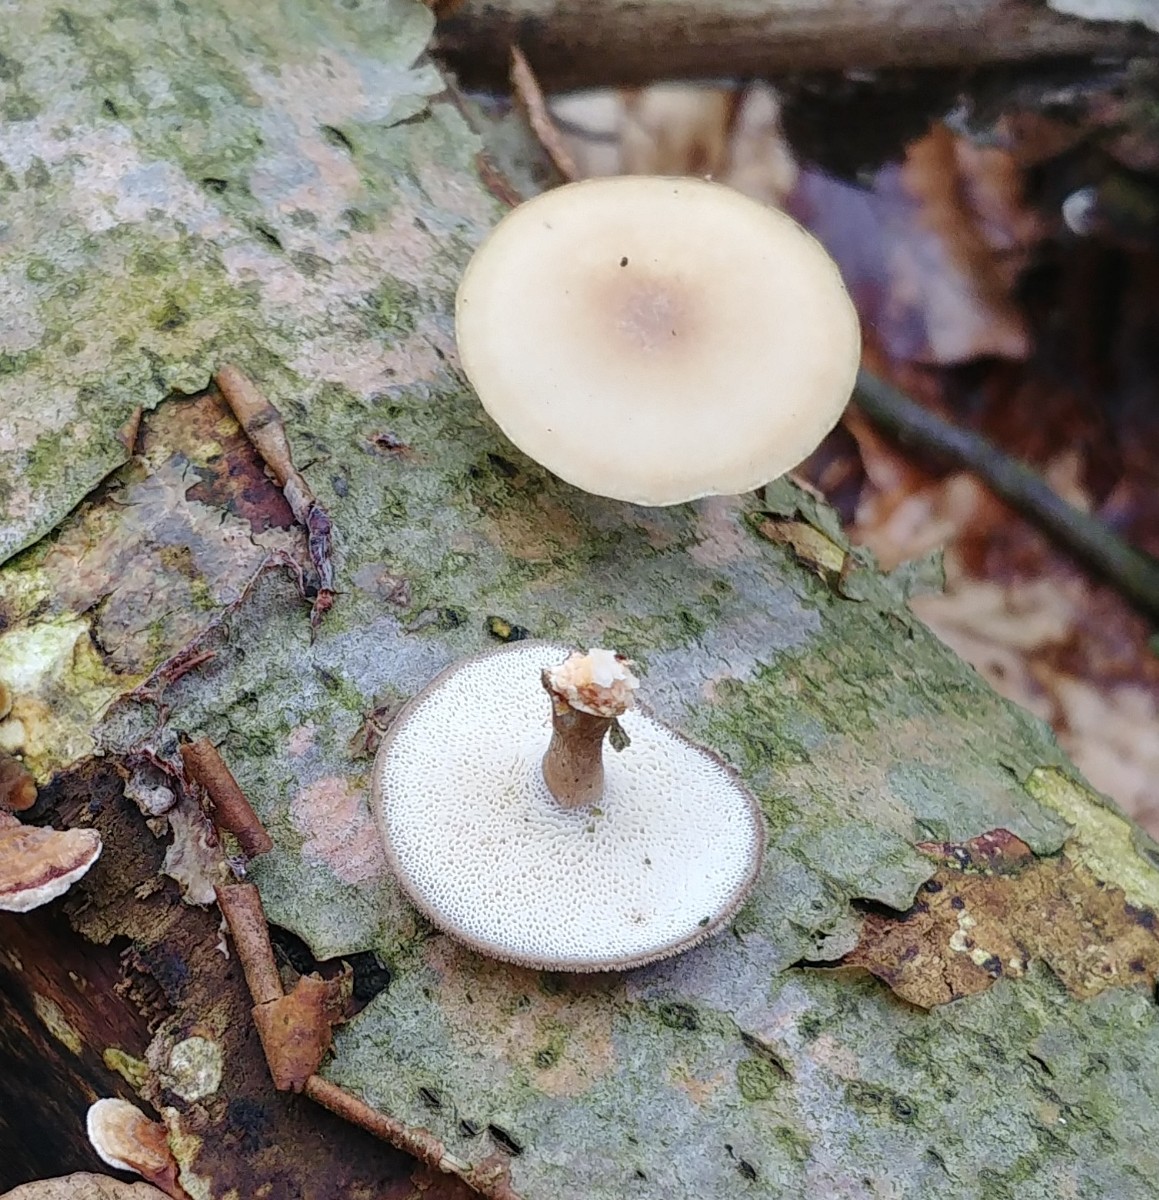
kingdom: Fungi
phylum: Basidiomycota
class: Agaricomycetes
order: Polyporales
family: Polyporaceae
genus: Lentinus
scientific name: Lentinus brumalis
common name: vinter-stilkporesvamp
